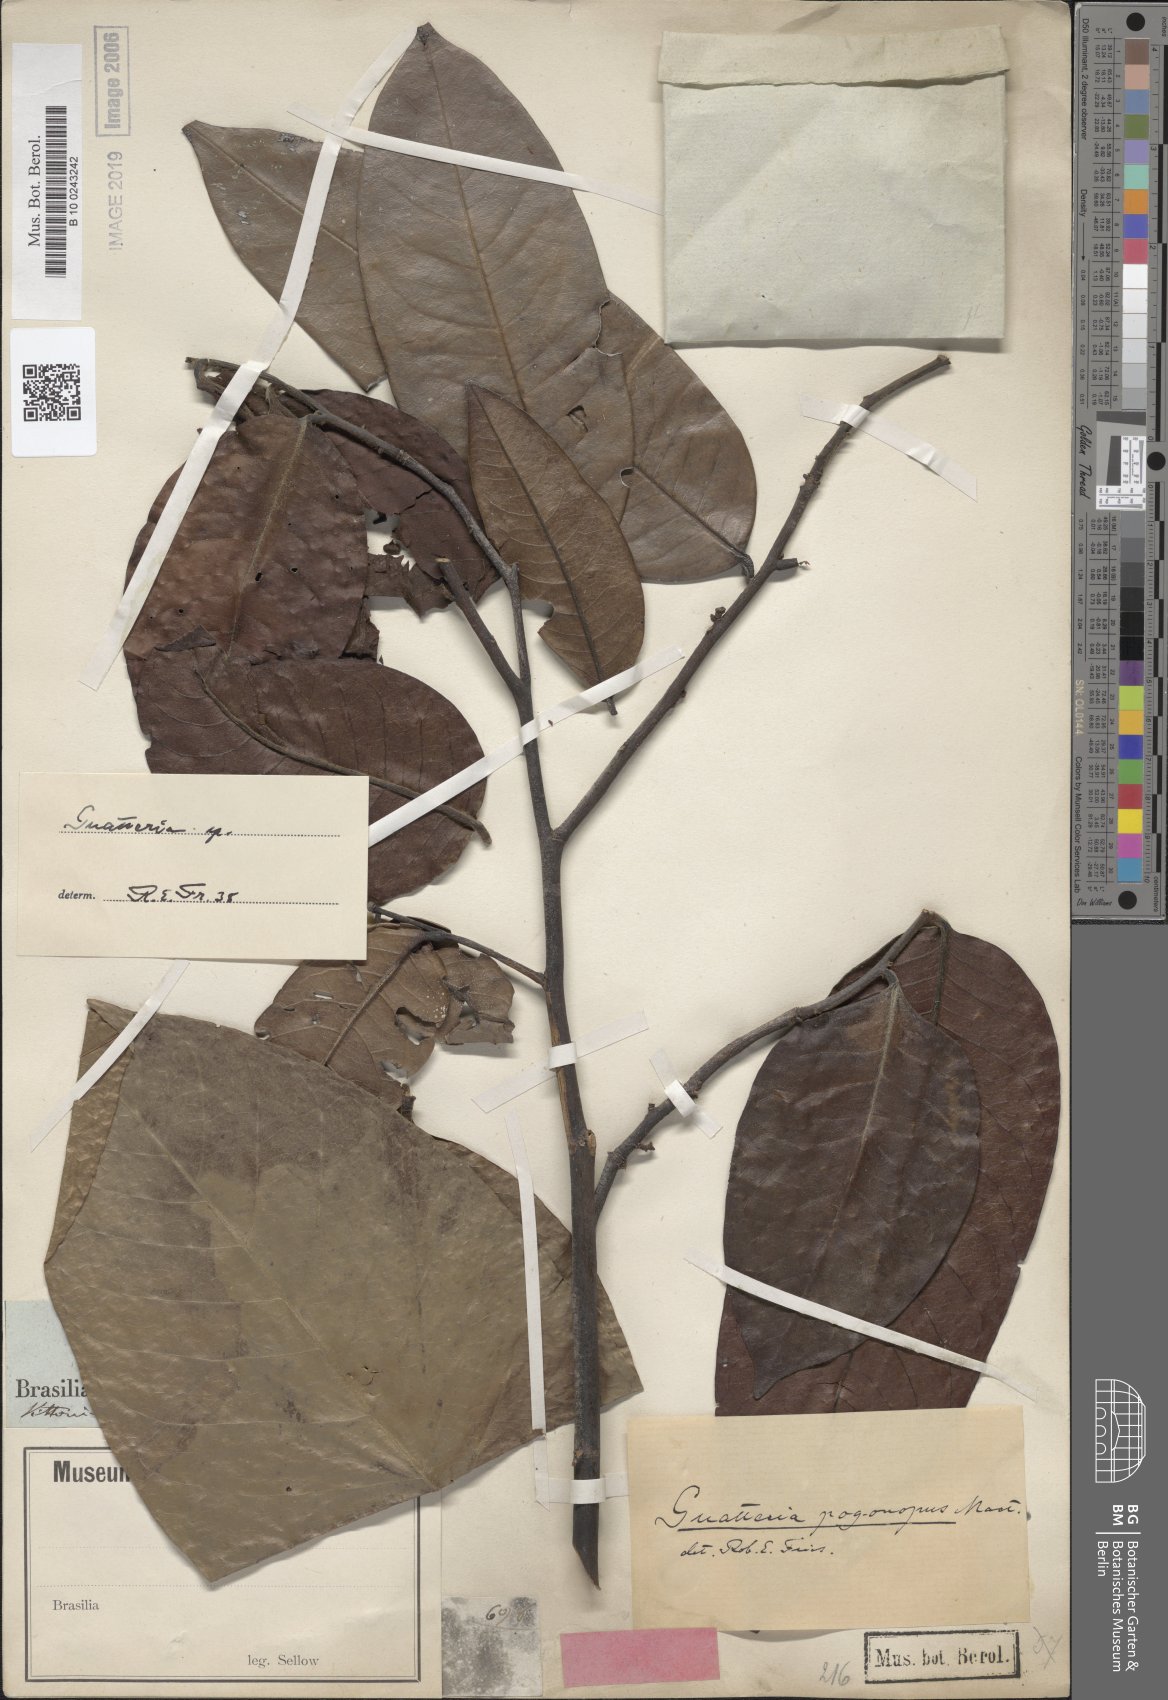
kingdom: Plantae
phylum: Tracheophyta
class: Magnoliopsida
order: Magnoliales
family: Annonaceae
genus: Guatteria
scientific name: Guatteria
